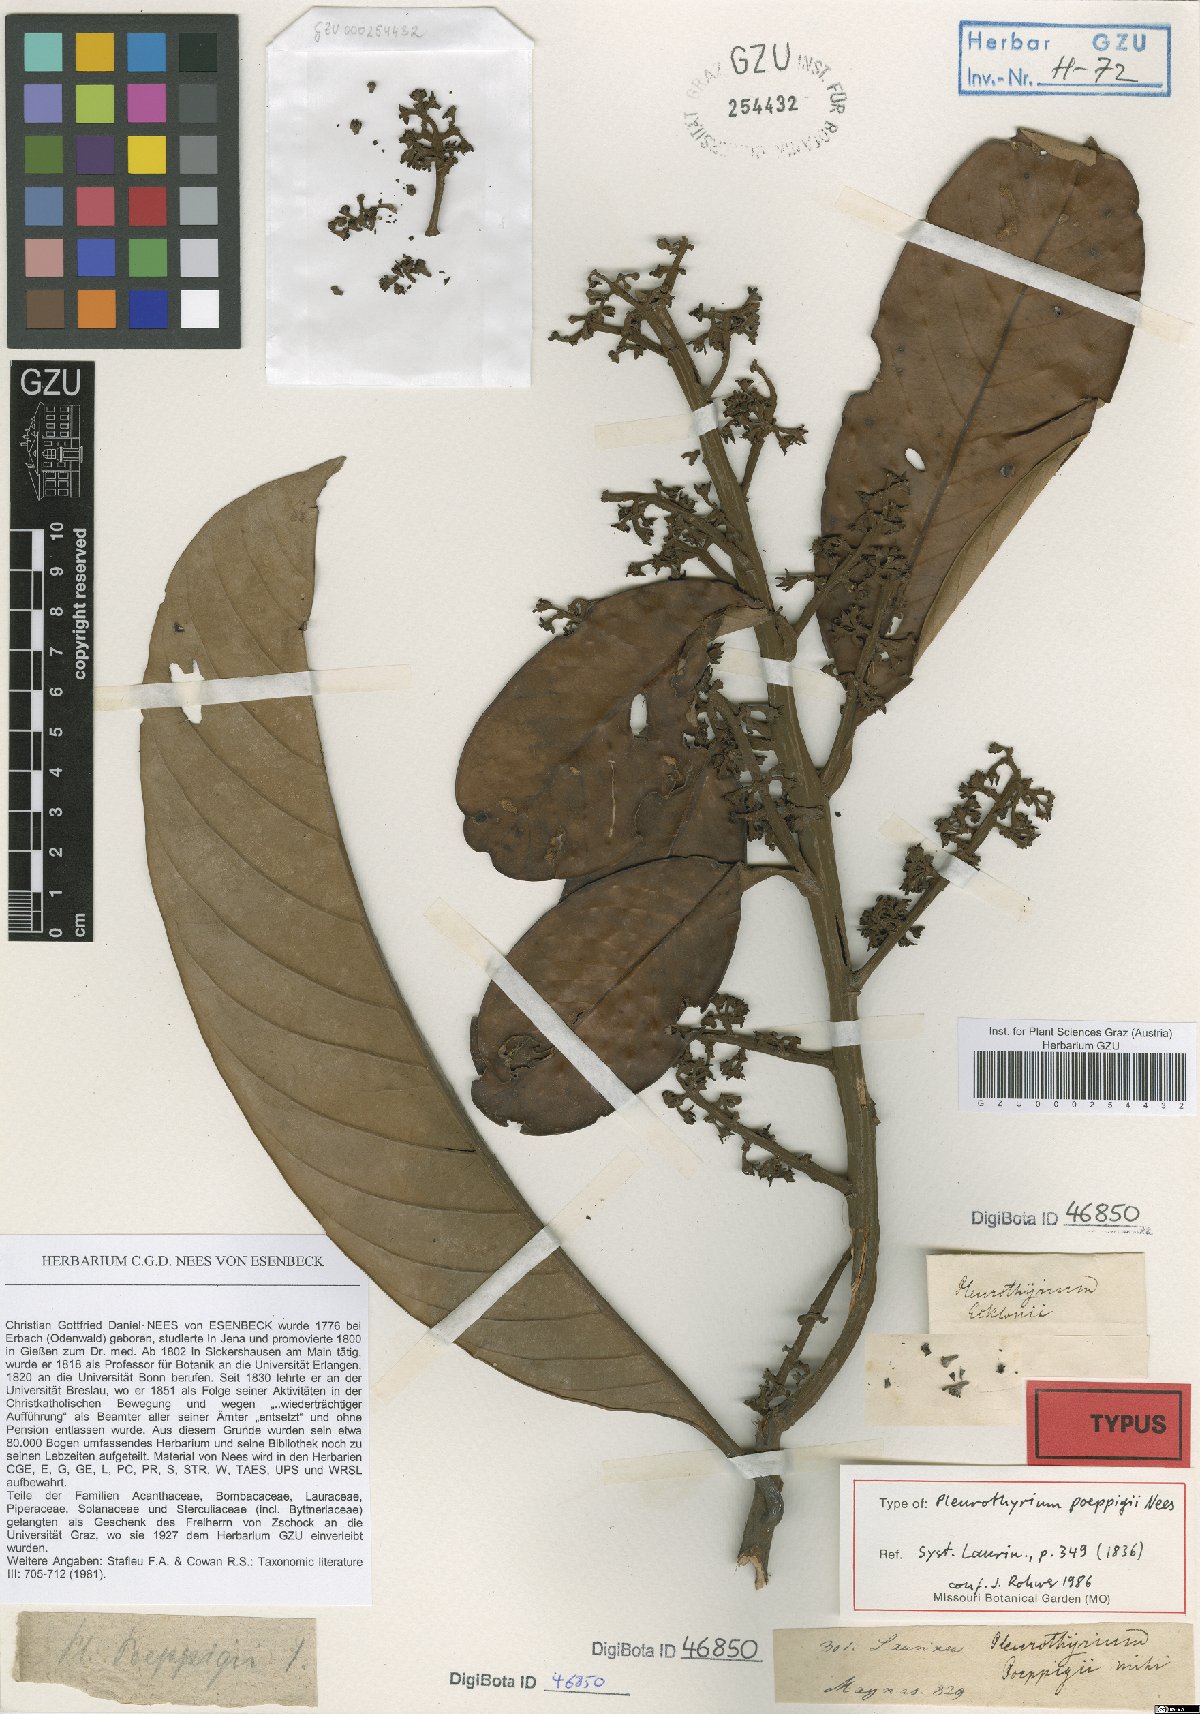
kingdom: Plantae
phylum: Tracheophyta
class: Magnoliopsida
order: Laurales
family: Lauraceae
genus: Pleurothyrium
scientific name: Pleurothyrium poeppigii
